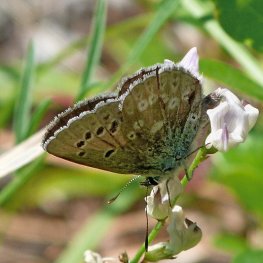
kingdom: Animalia
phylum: Arthropoda
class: Insecta
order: Lepidoptera
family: Lycaenidae
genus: Icaricia
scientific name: Icaricia icarioides
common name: Boisduval's Blue
